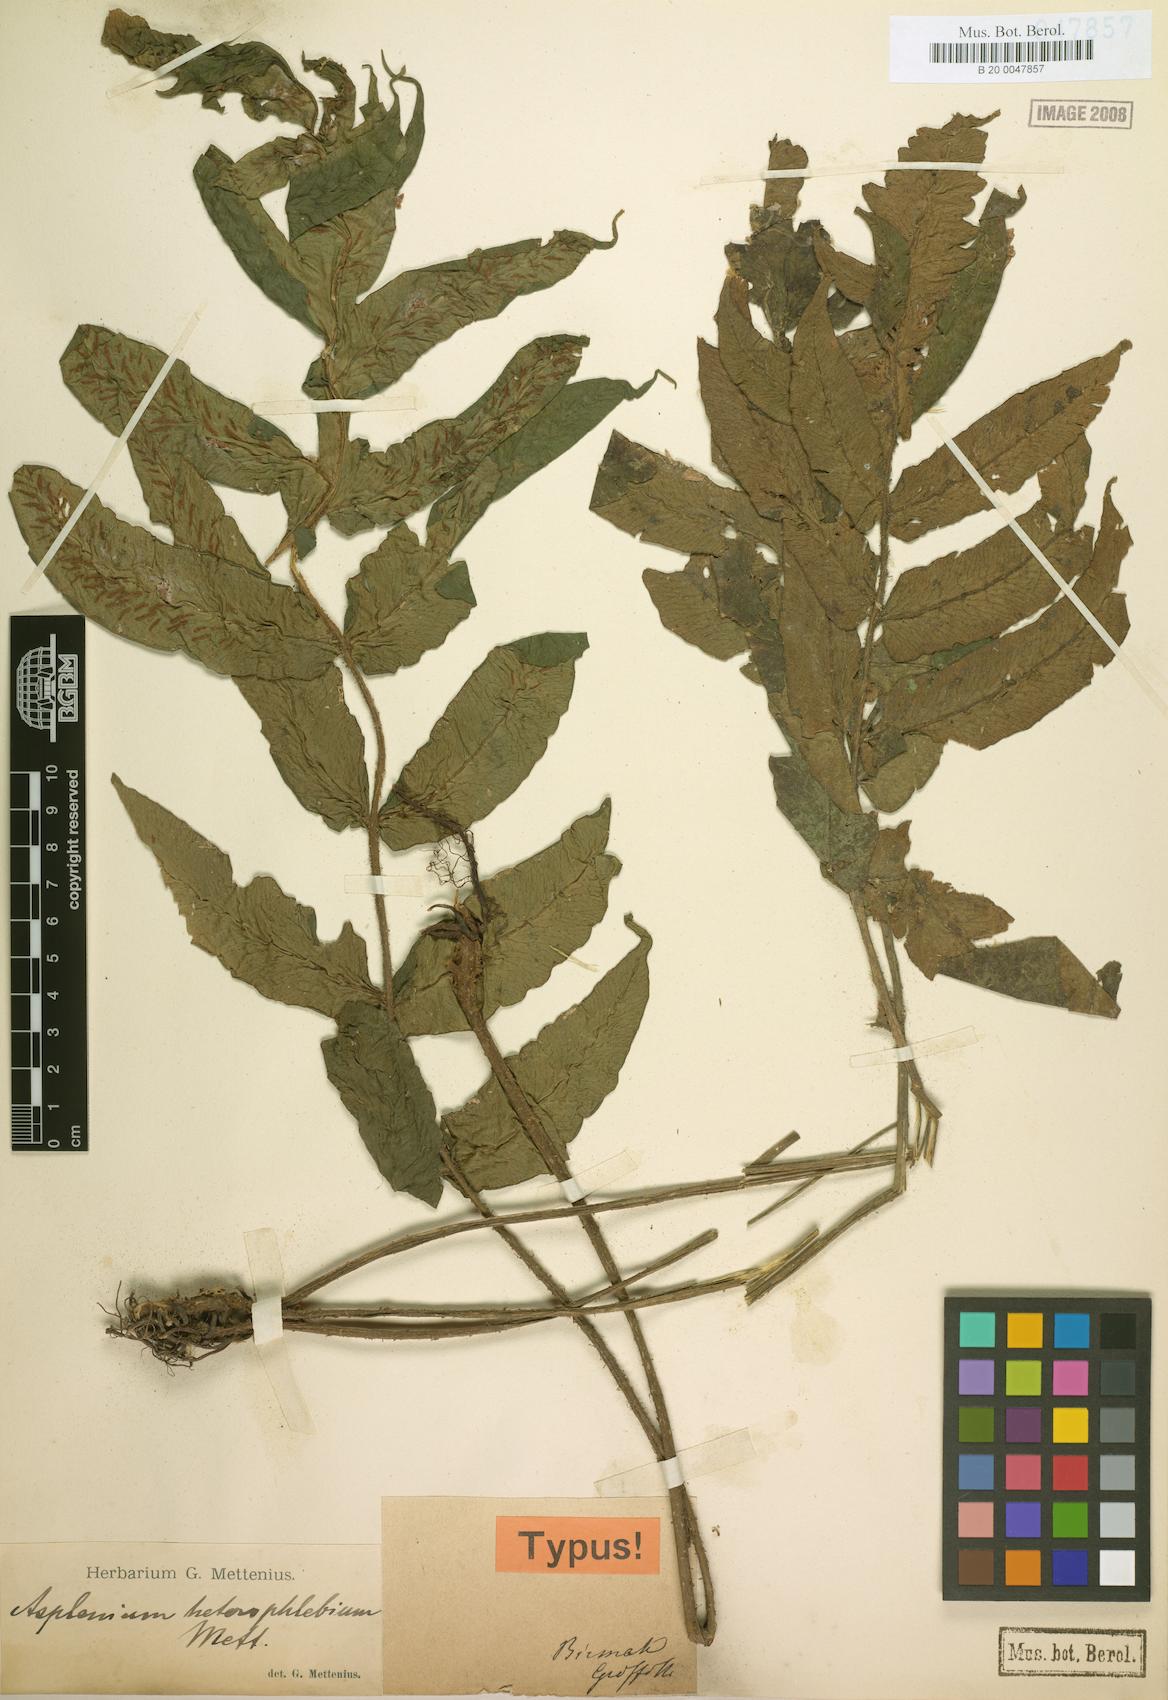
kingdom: Plantae
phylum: Tracheophyta
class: Polypodiopsida
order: Polypodiales
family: Athyriaceae
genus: Deparia
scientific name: Deparia heterophlebia
